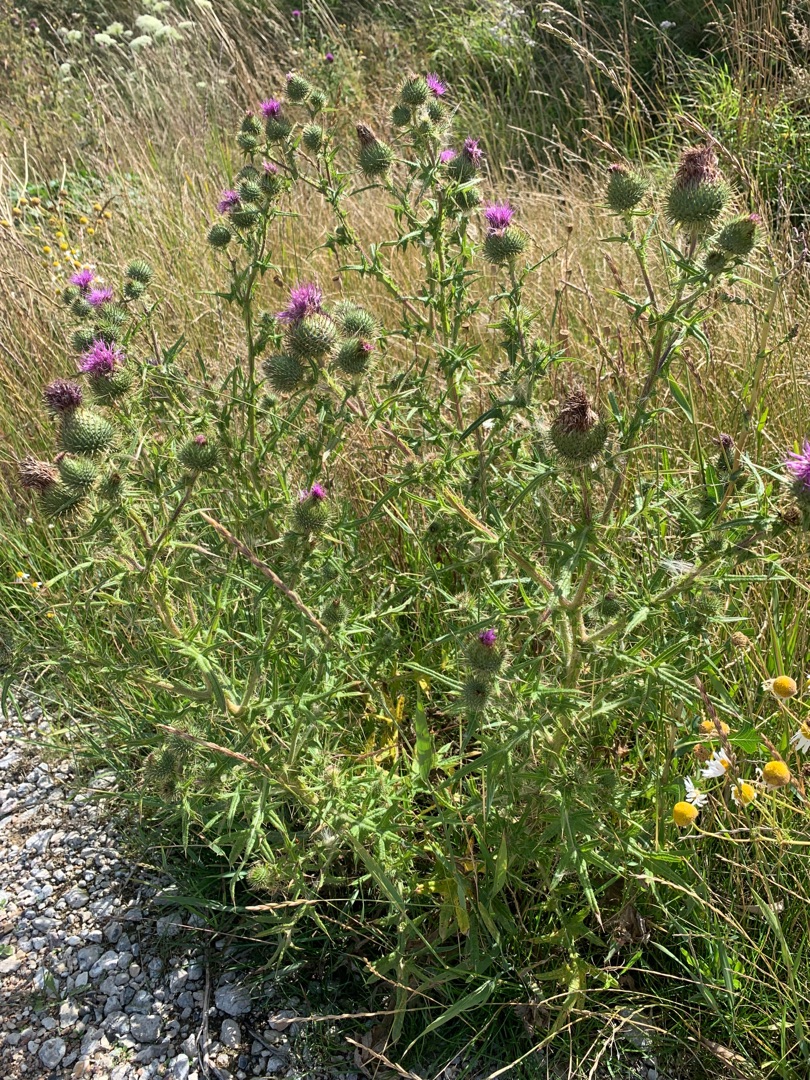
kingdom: Plantae
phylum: Tracheophyta
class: Magnoliopsida
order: Asterales
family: Asteraceae
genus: Cirsium
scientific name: Cirsium vulgare
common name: Horse-tidsel
